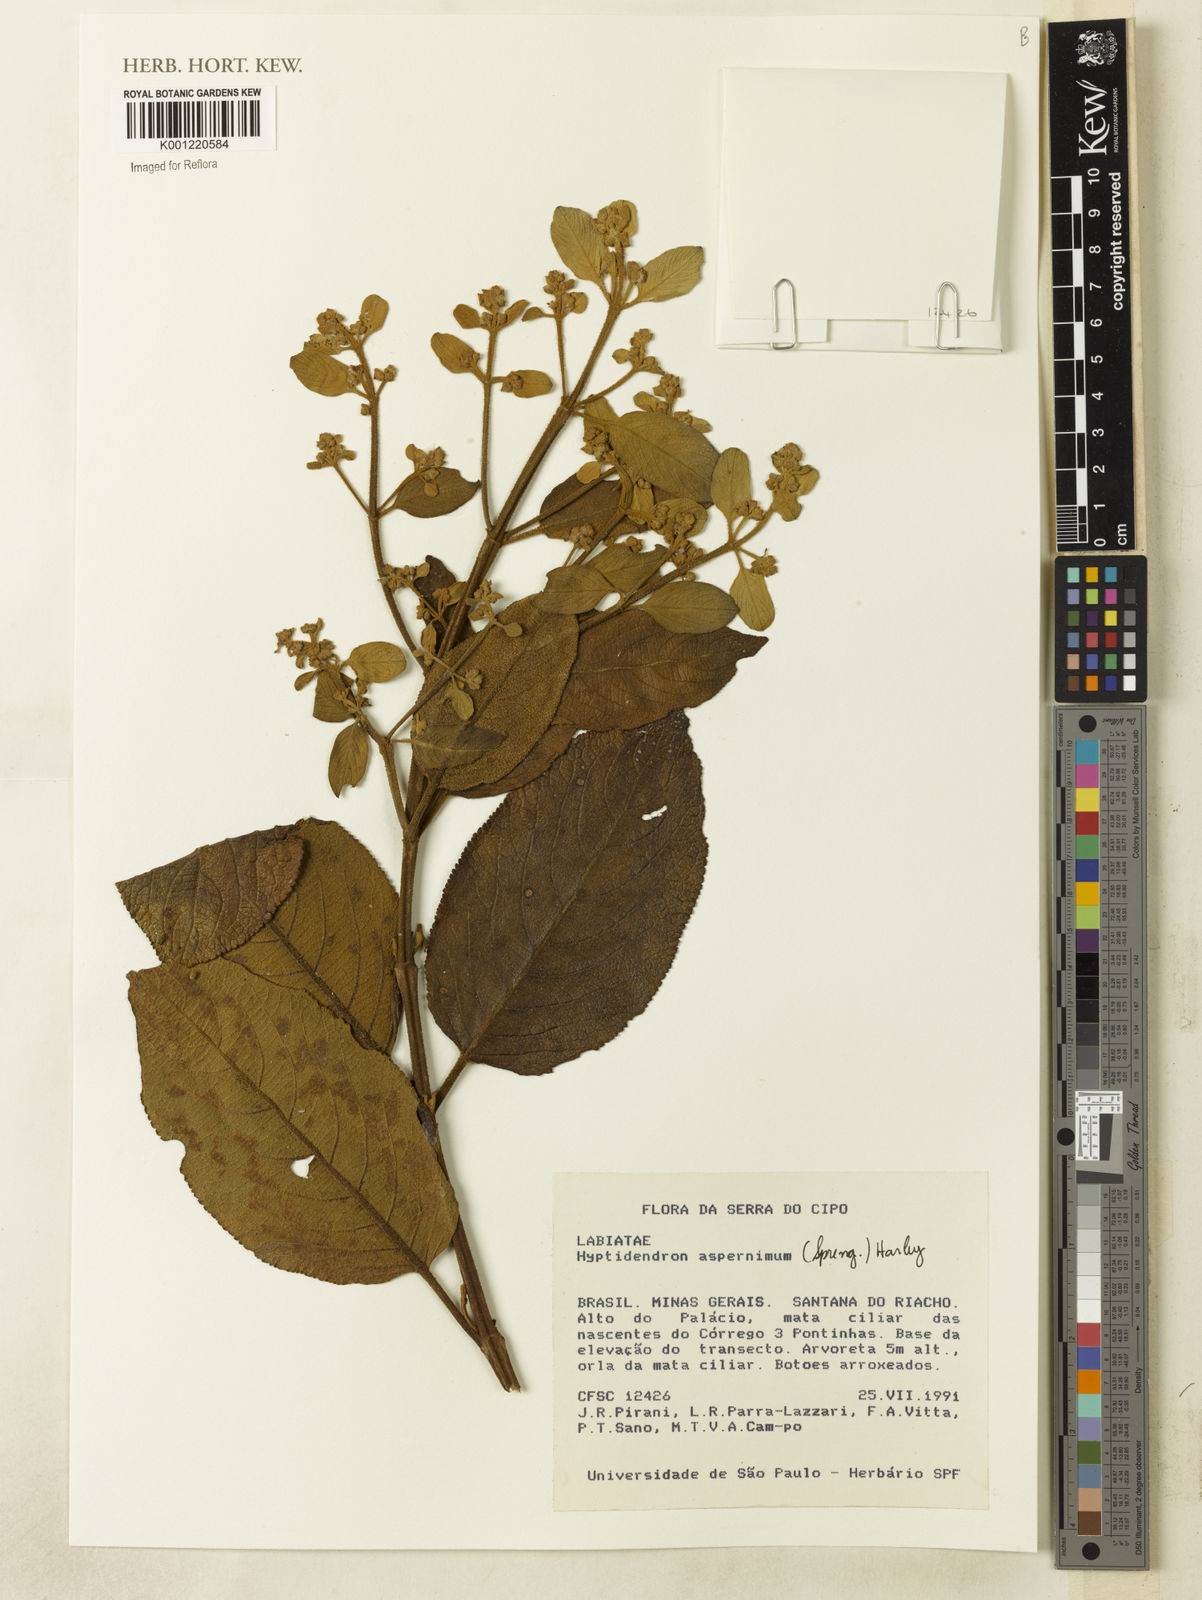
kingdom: Plantae
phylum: Tracheophyta
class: Magnoliopsida
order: Lamiales
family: Lamiaceae
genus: Hyptidendron
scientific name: Hyptidendron asperrimum
